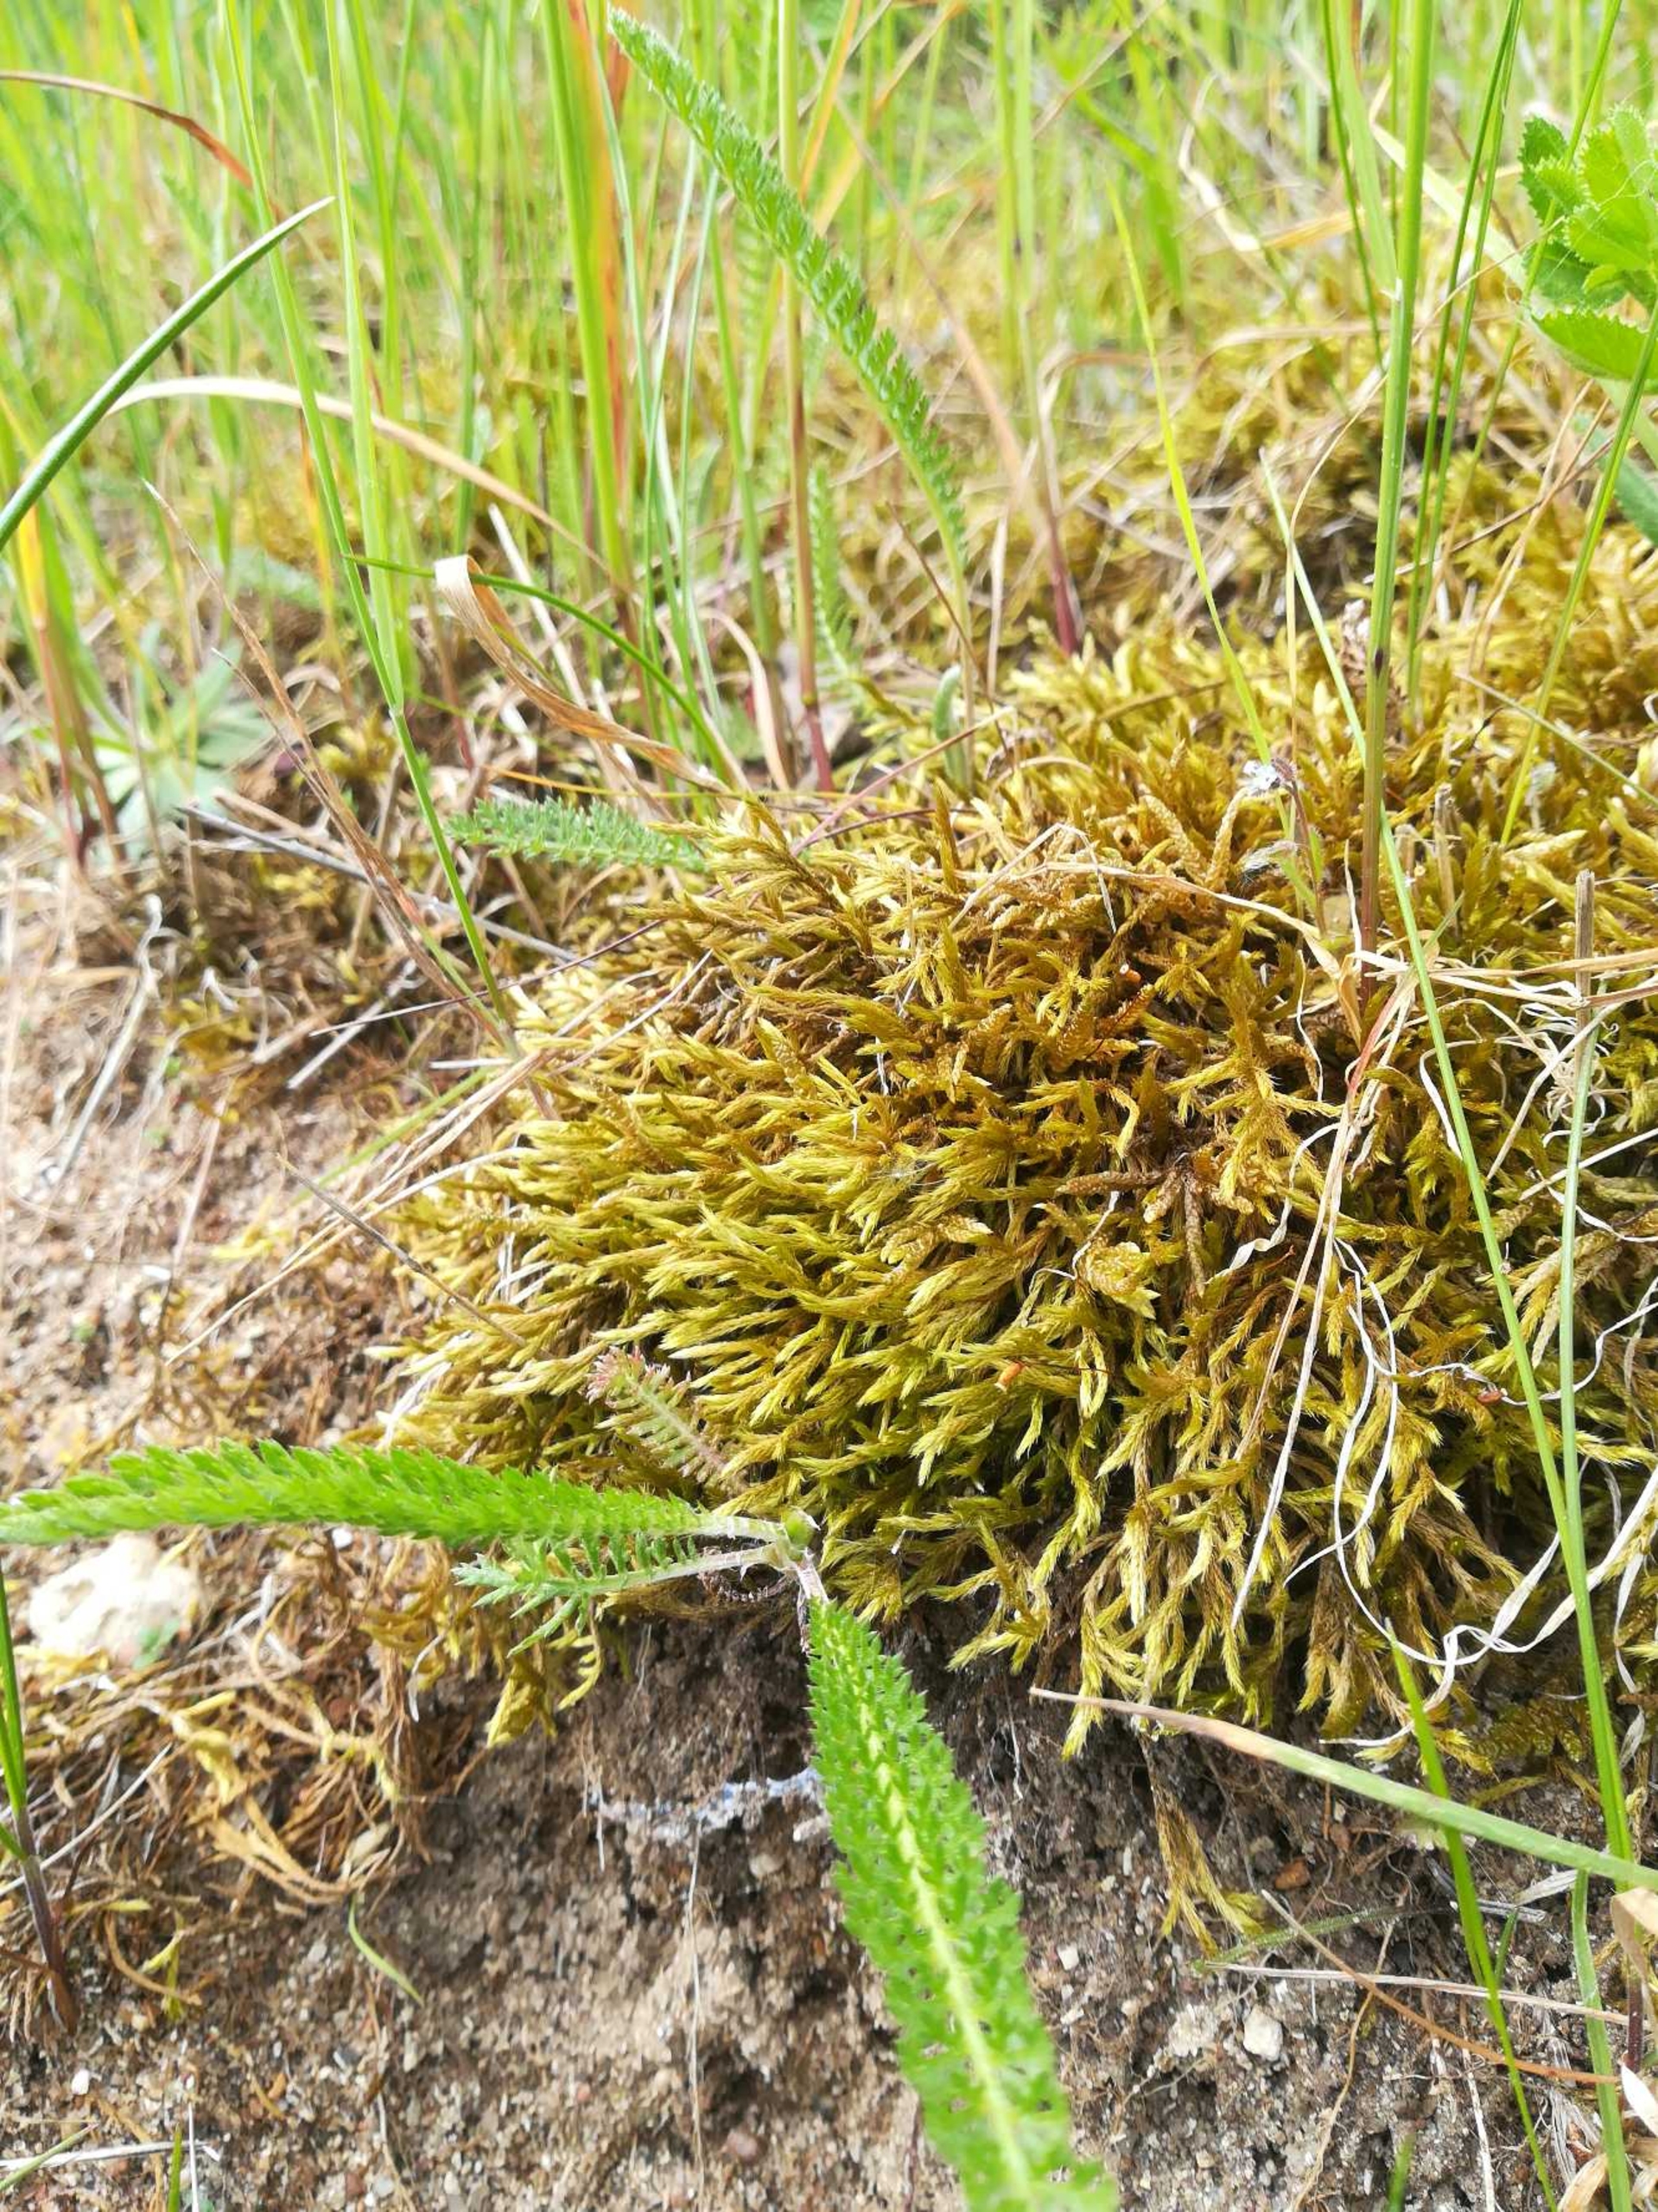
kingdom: Plantae
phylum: Bryophyta
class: Bryopsida
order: Hypnales
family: Brachytheciaceae
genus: Homalothecium
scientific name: Homalothecium lutescens
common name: Gul krumkapsel
